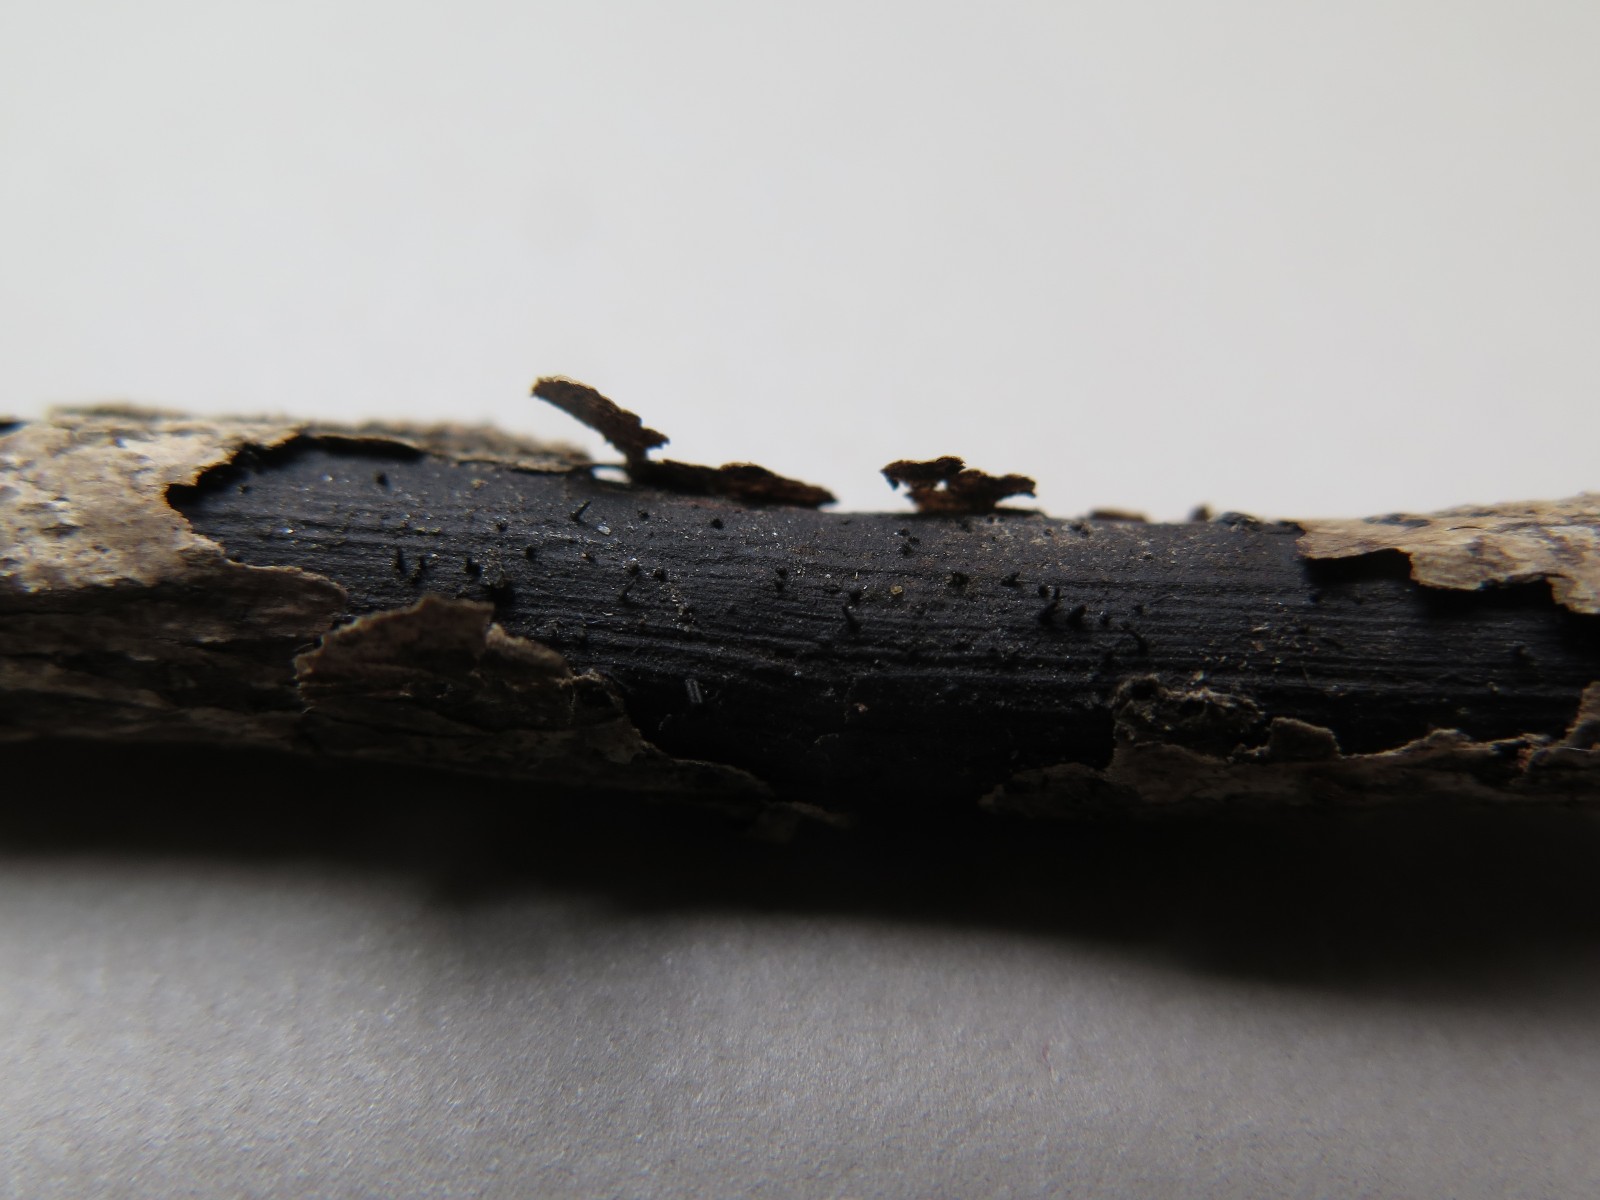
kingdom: Fungi
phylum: Ascomycota
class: Sordariomycetes
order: Diaporthales
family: Diaporthaceae
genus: Diaporthe
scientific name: Diaporthe pulla
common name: efeu-kulknippe
